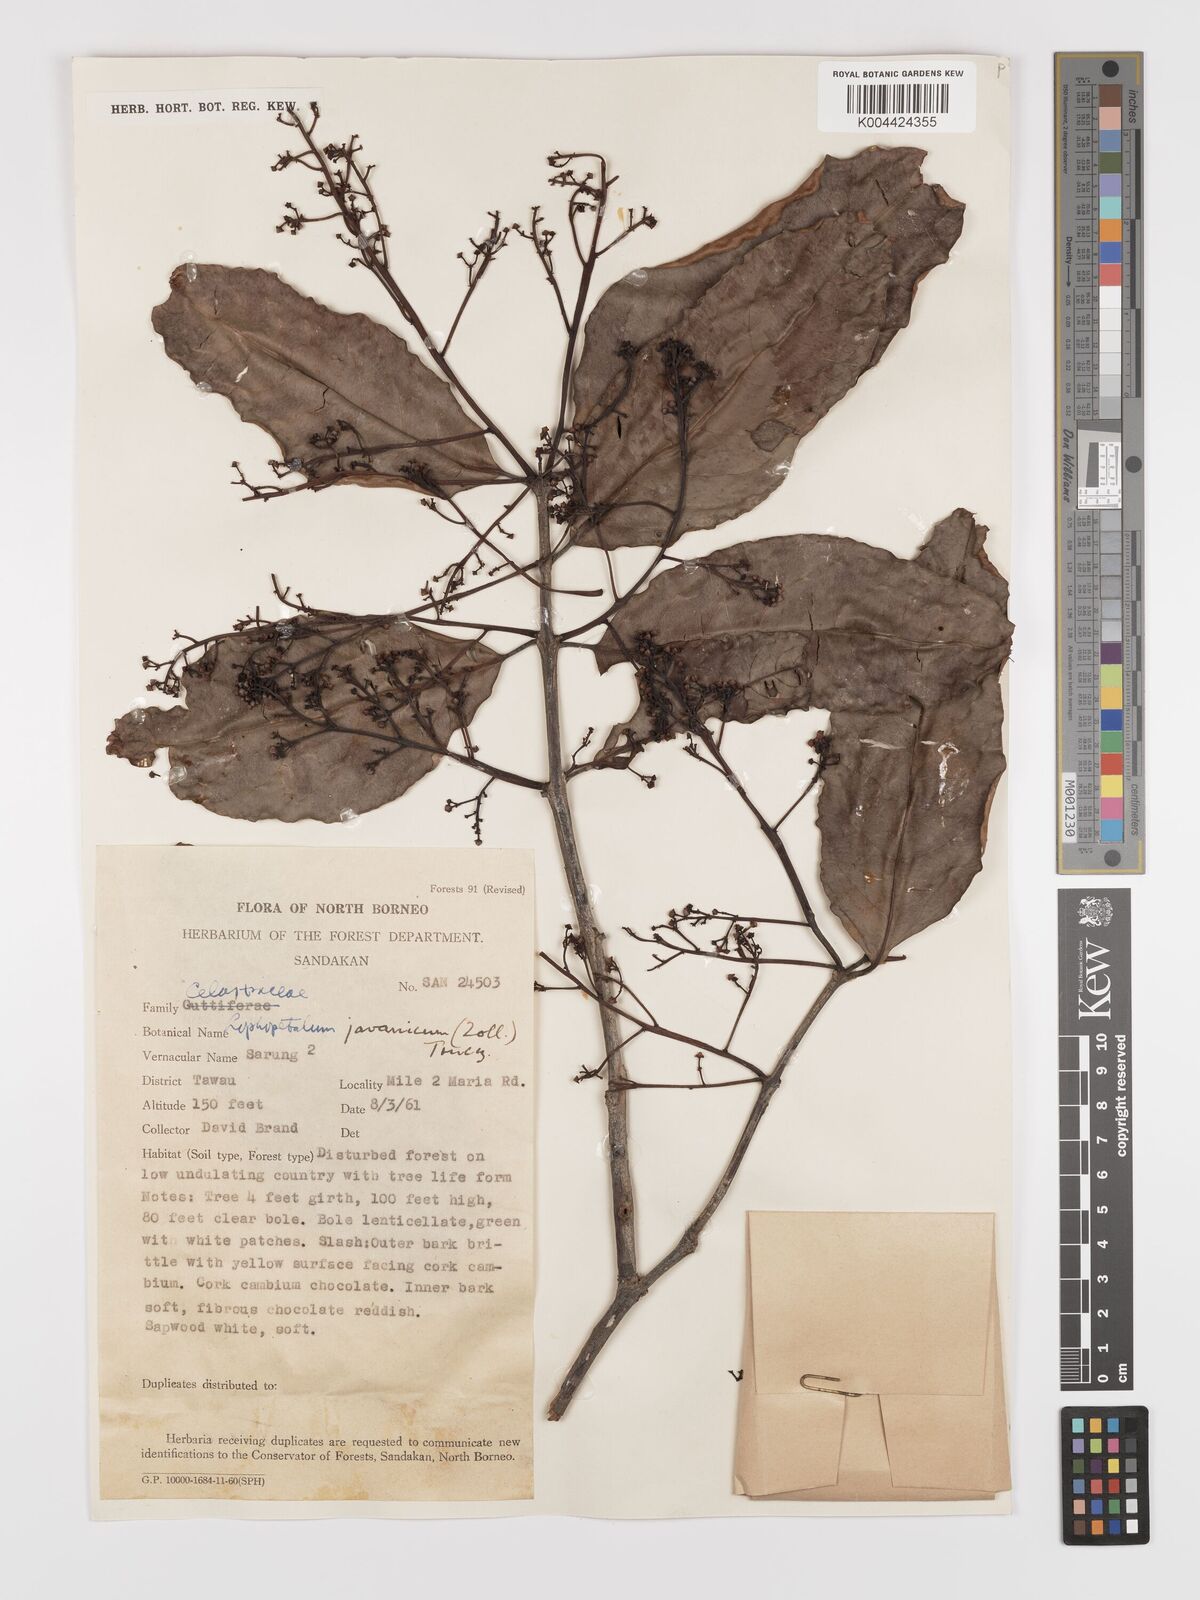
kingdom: Plantae
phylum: Tracheophyta
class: Magnoliopsida
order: Celastrales
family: Celastraceae
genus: Lophopetalum
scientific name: Lophopetalum javanicum
